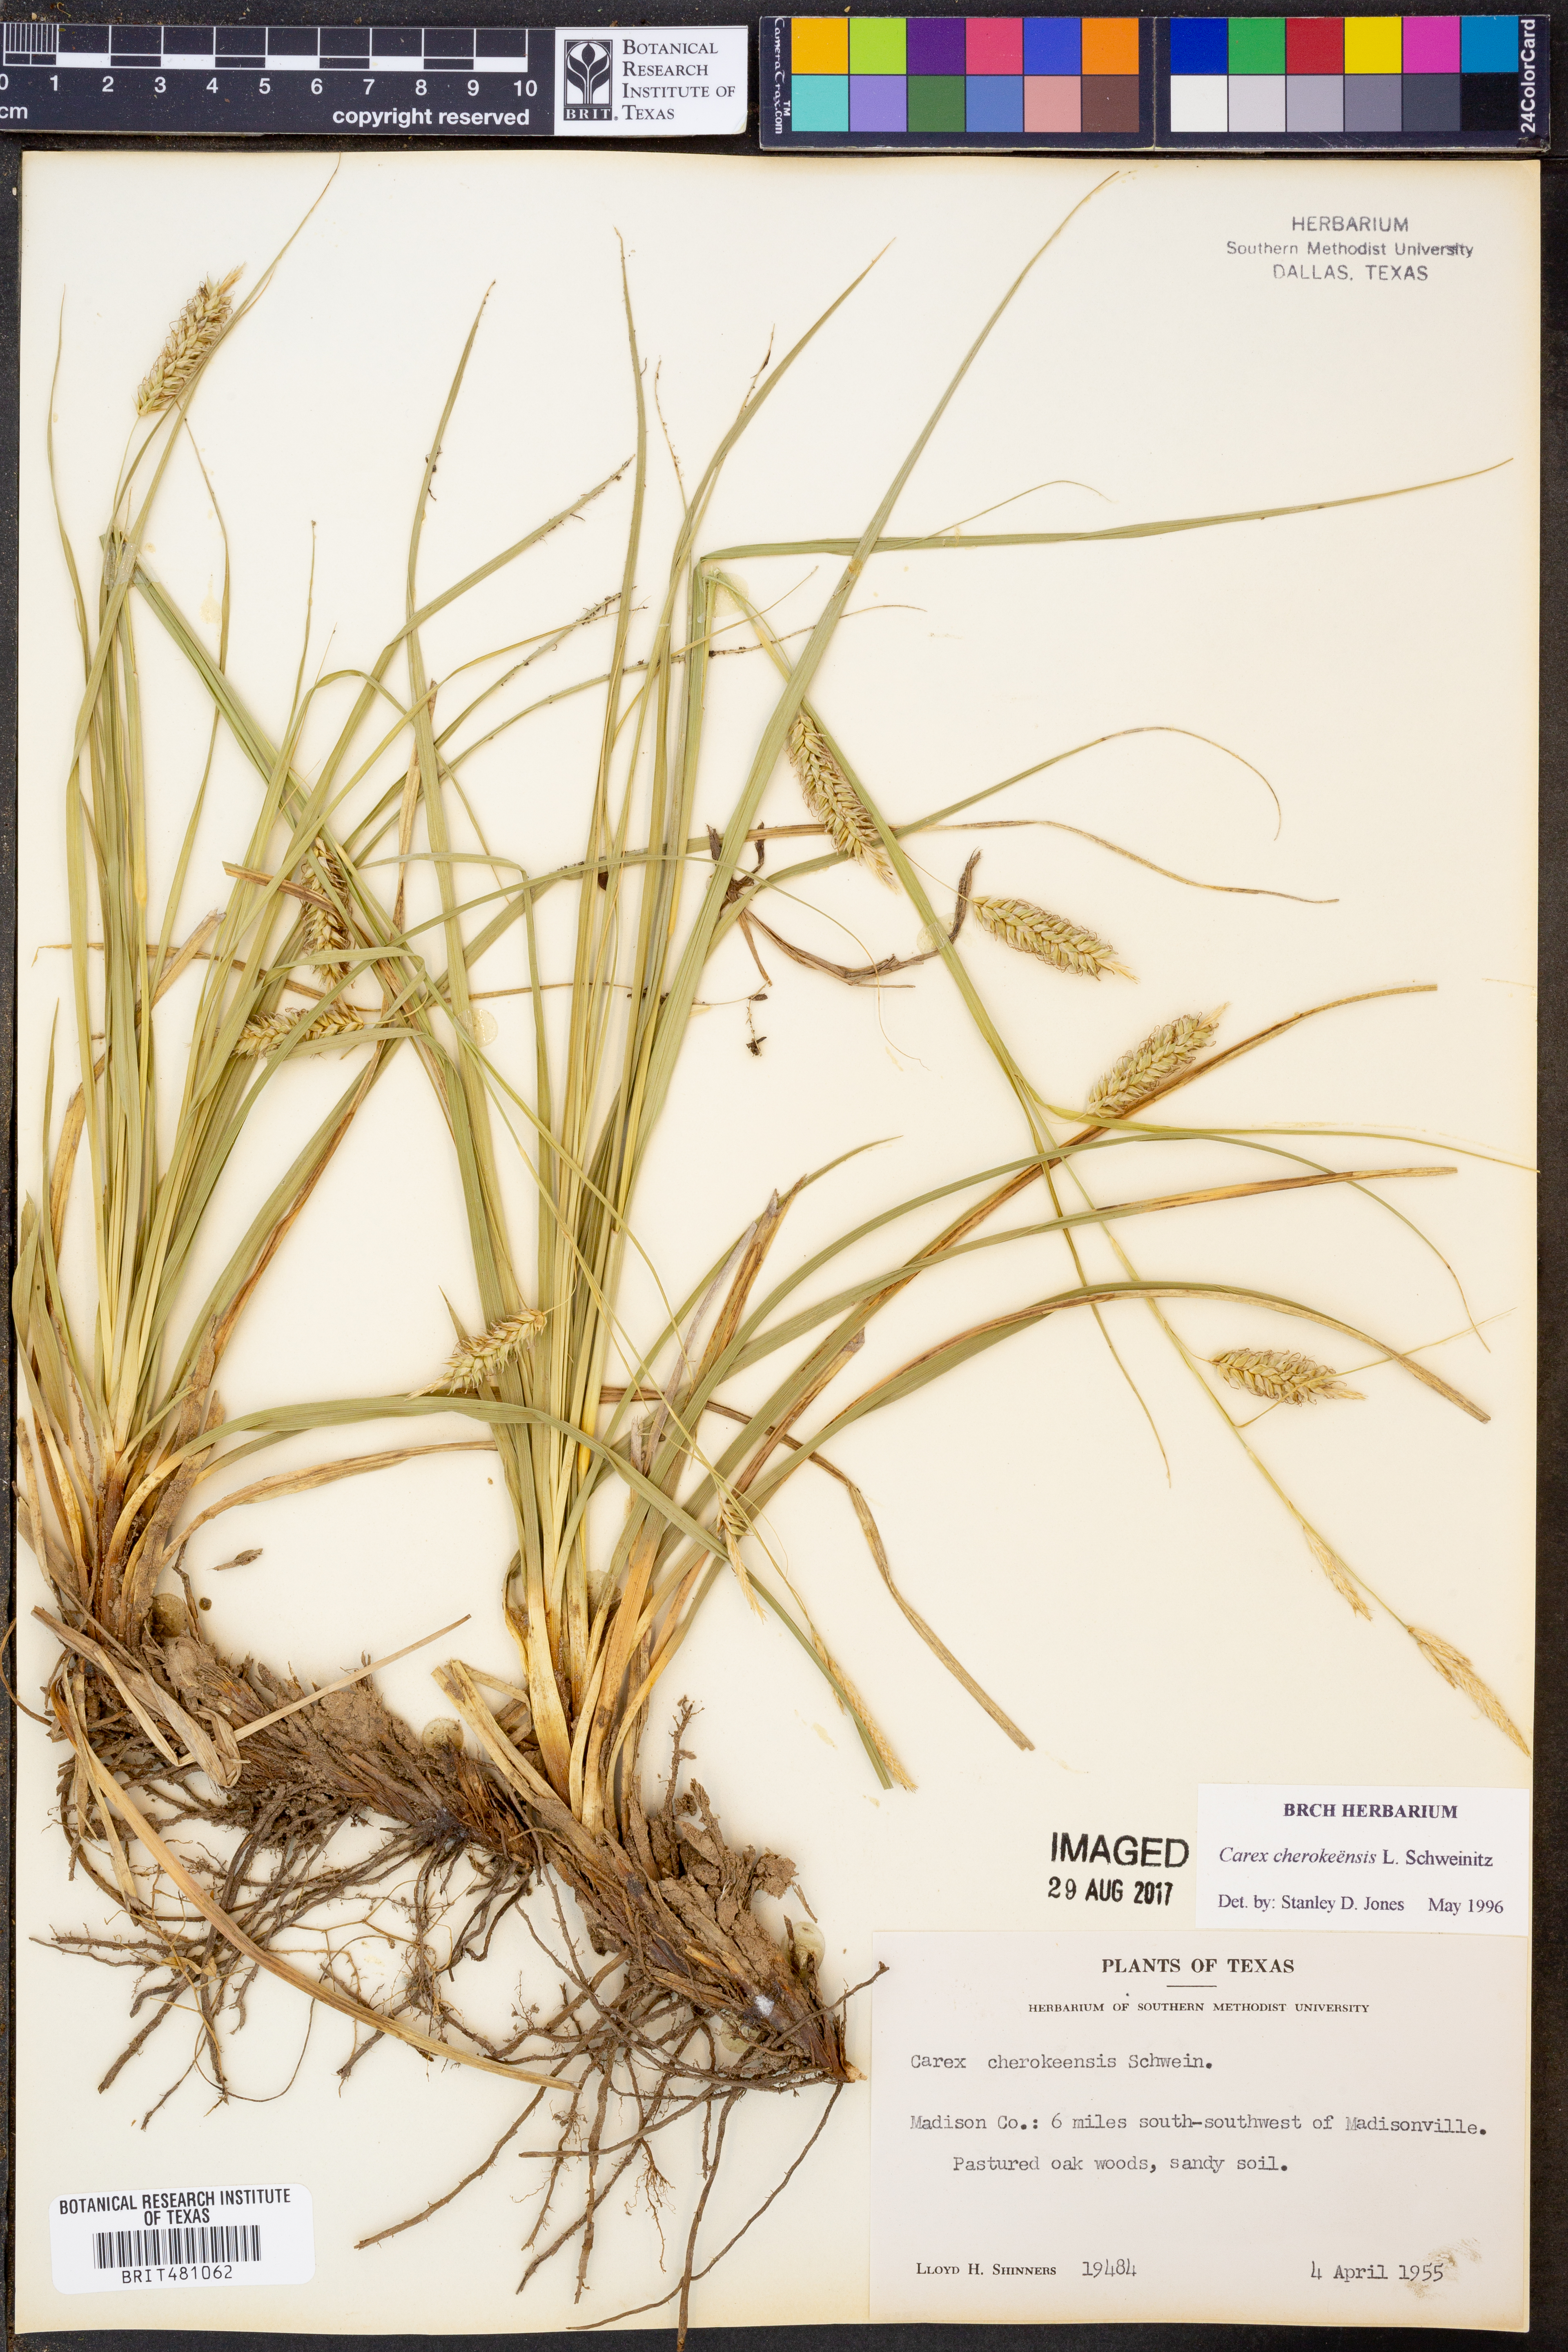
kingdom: Plantae
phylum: Tracheophyta
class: Liliopsida
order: Poales
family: Cyperaceae
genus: Carex
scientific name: Carex cherokeensis
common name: Cherokee sedge
